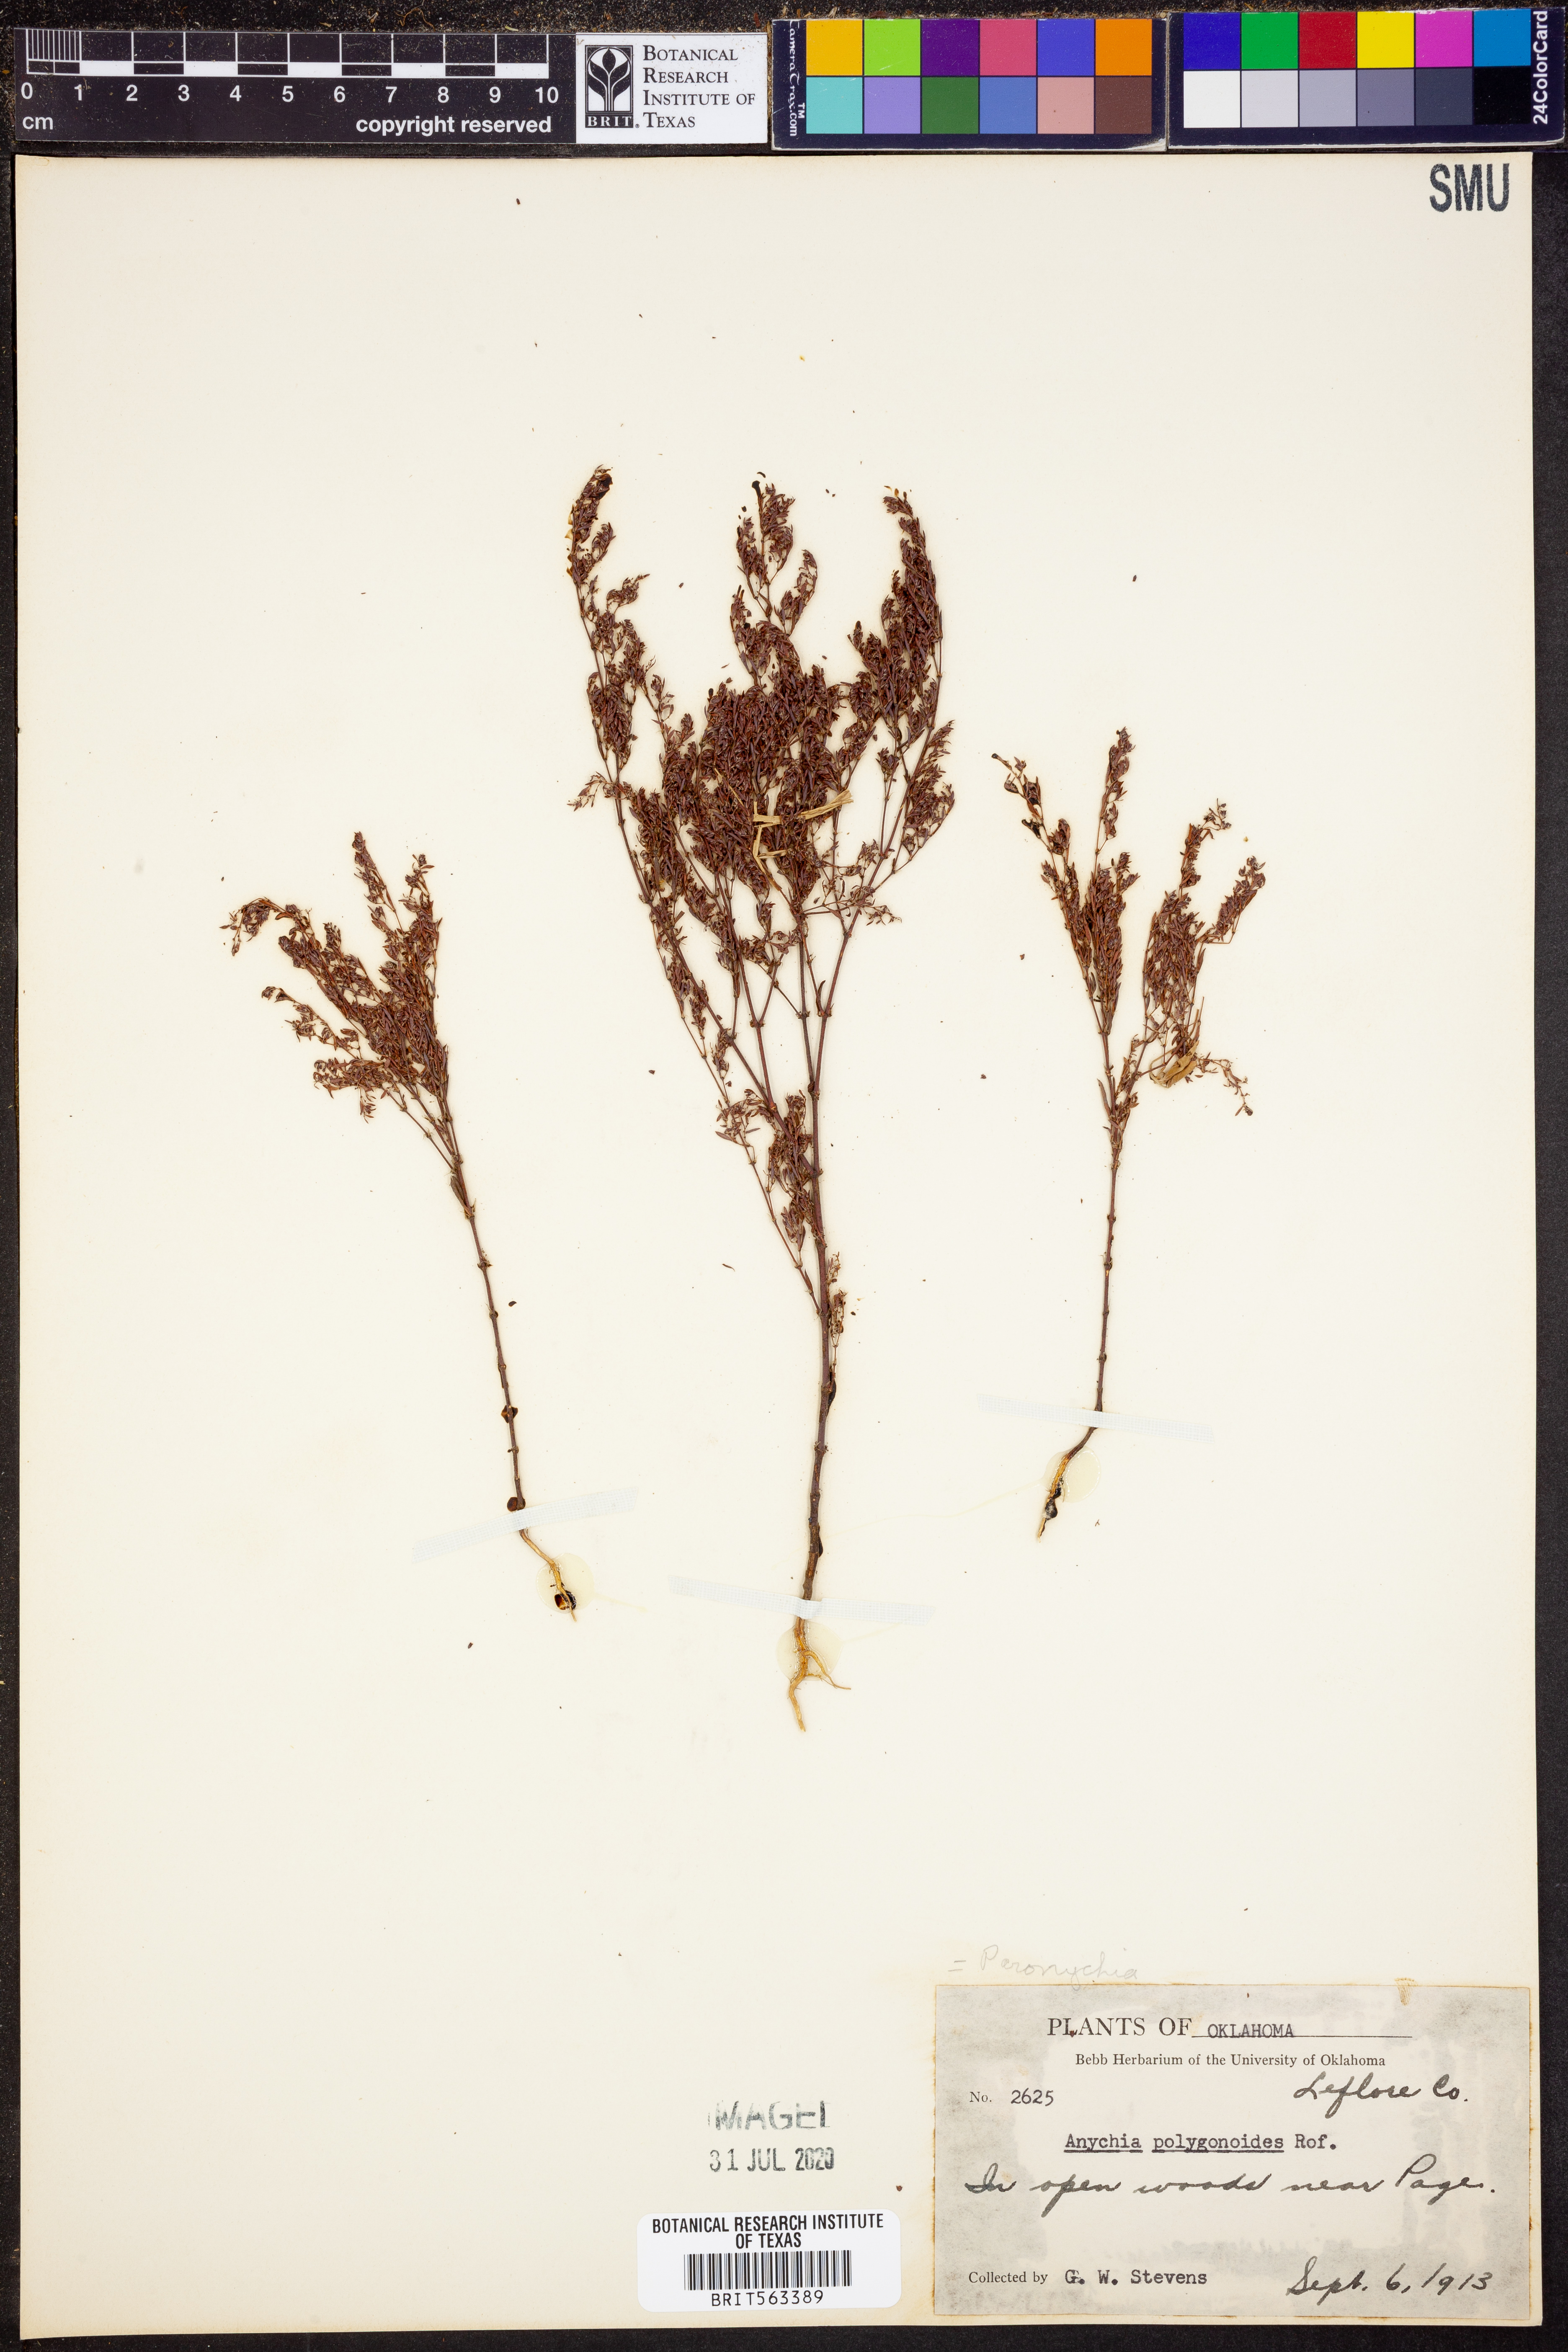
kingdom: Plantae
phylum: Tracheophyta
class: Magnoliopsida
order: Caryophyllales
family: Caryophyllaceae
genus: Paronychia
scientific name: Paronychia fastigiata
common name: Branching forked whitlow-wort
